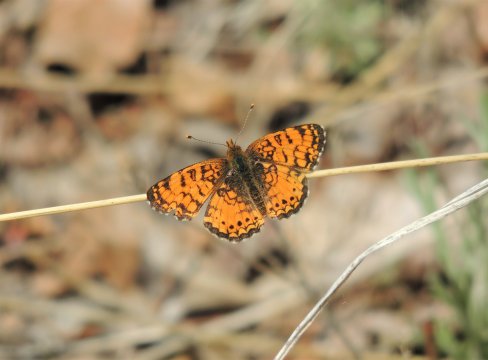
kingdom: Animalia
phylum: Arthropoda
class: Insecta
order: Lepidoptera
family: Nymphalidae
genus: Eresia
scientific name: Eresia aveyrona
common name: Mylitta Crescent
